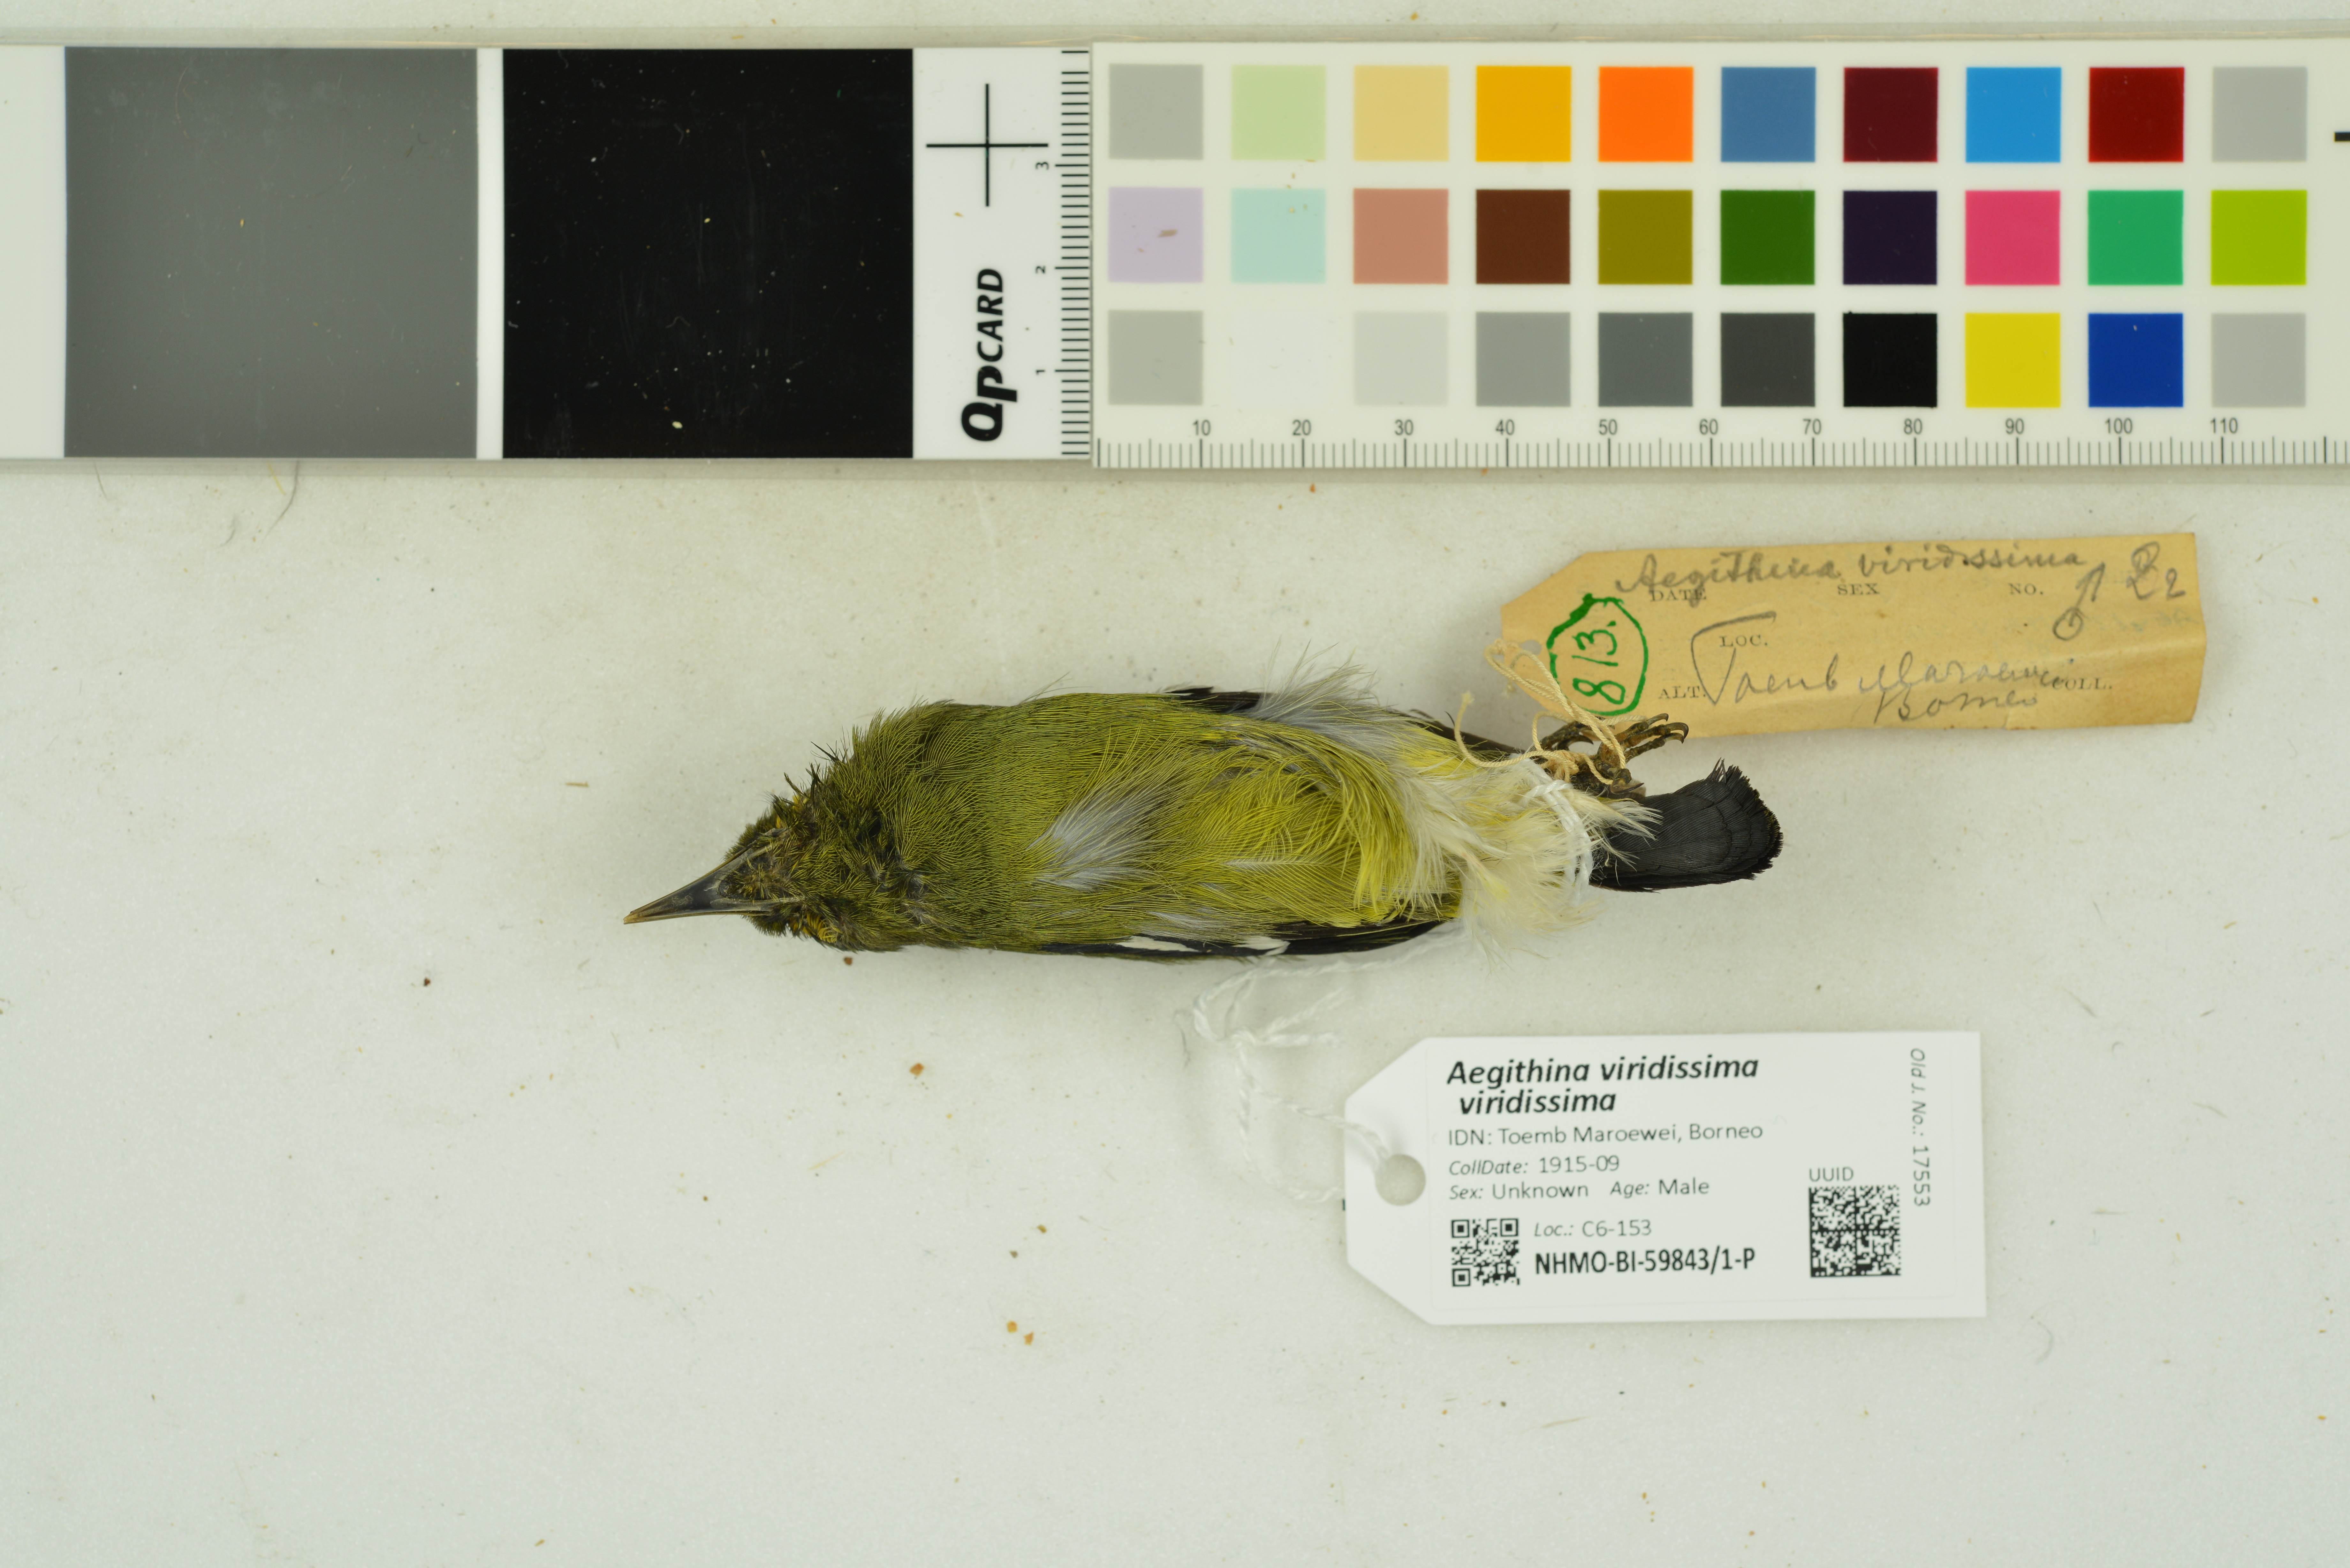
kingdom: Animalia
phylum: Chordata
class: Aves
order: Passeriformes
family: Aegithinidae
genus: Aegithina
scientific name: Aegithina viridissima
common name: Green iora
